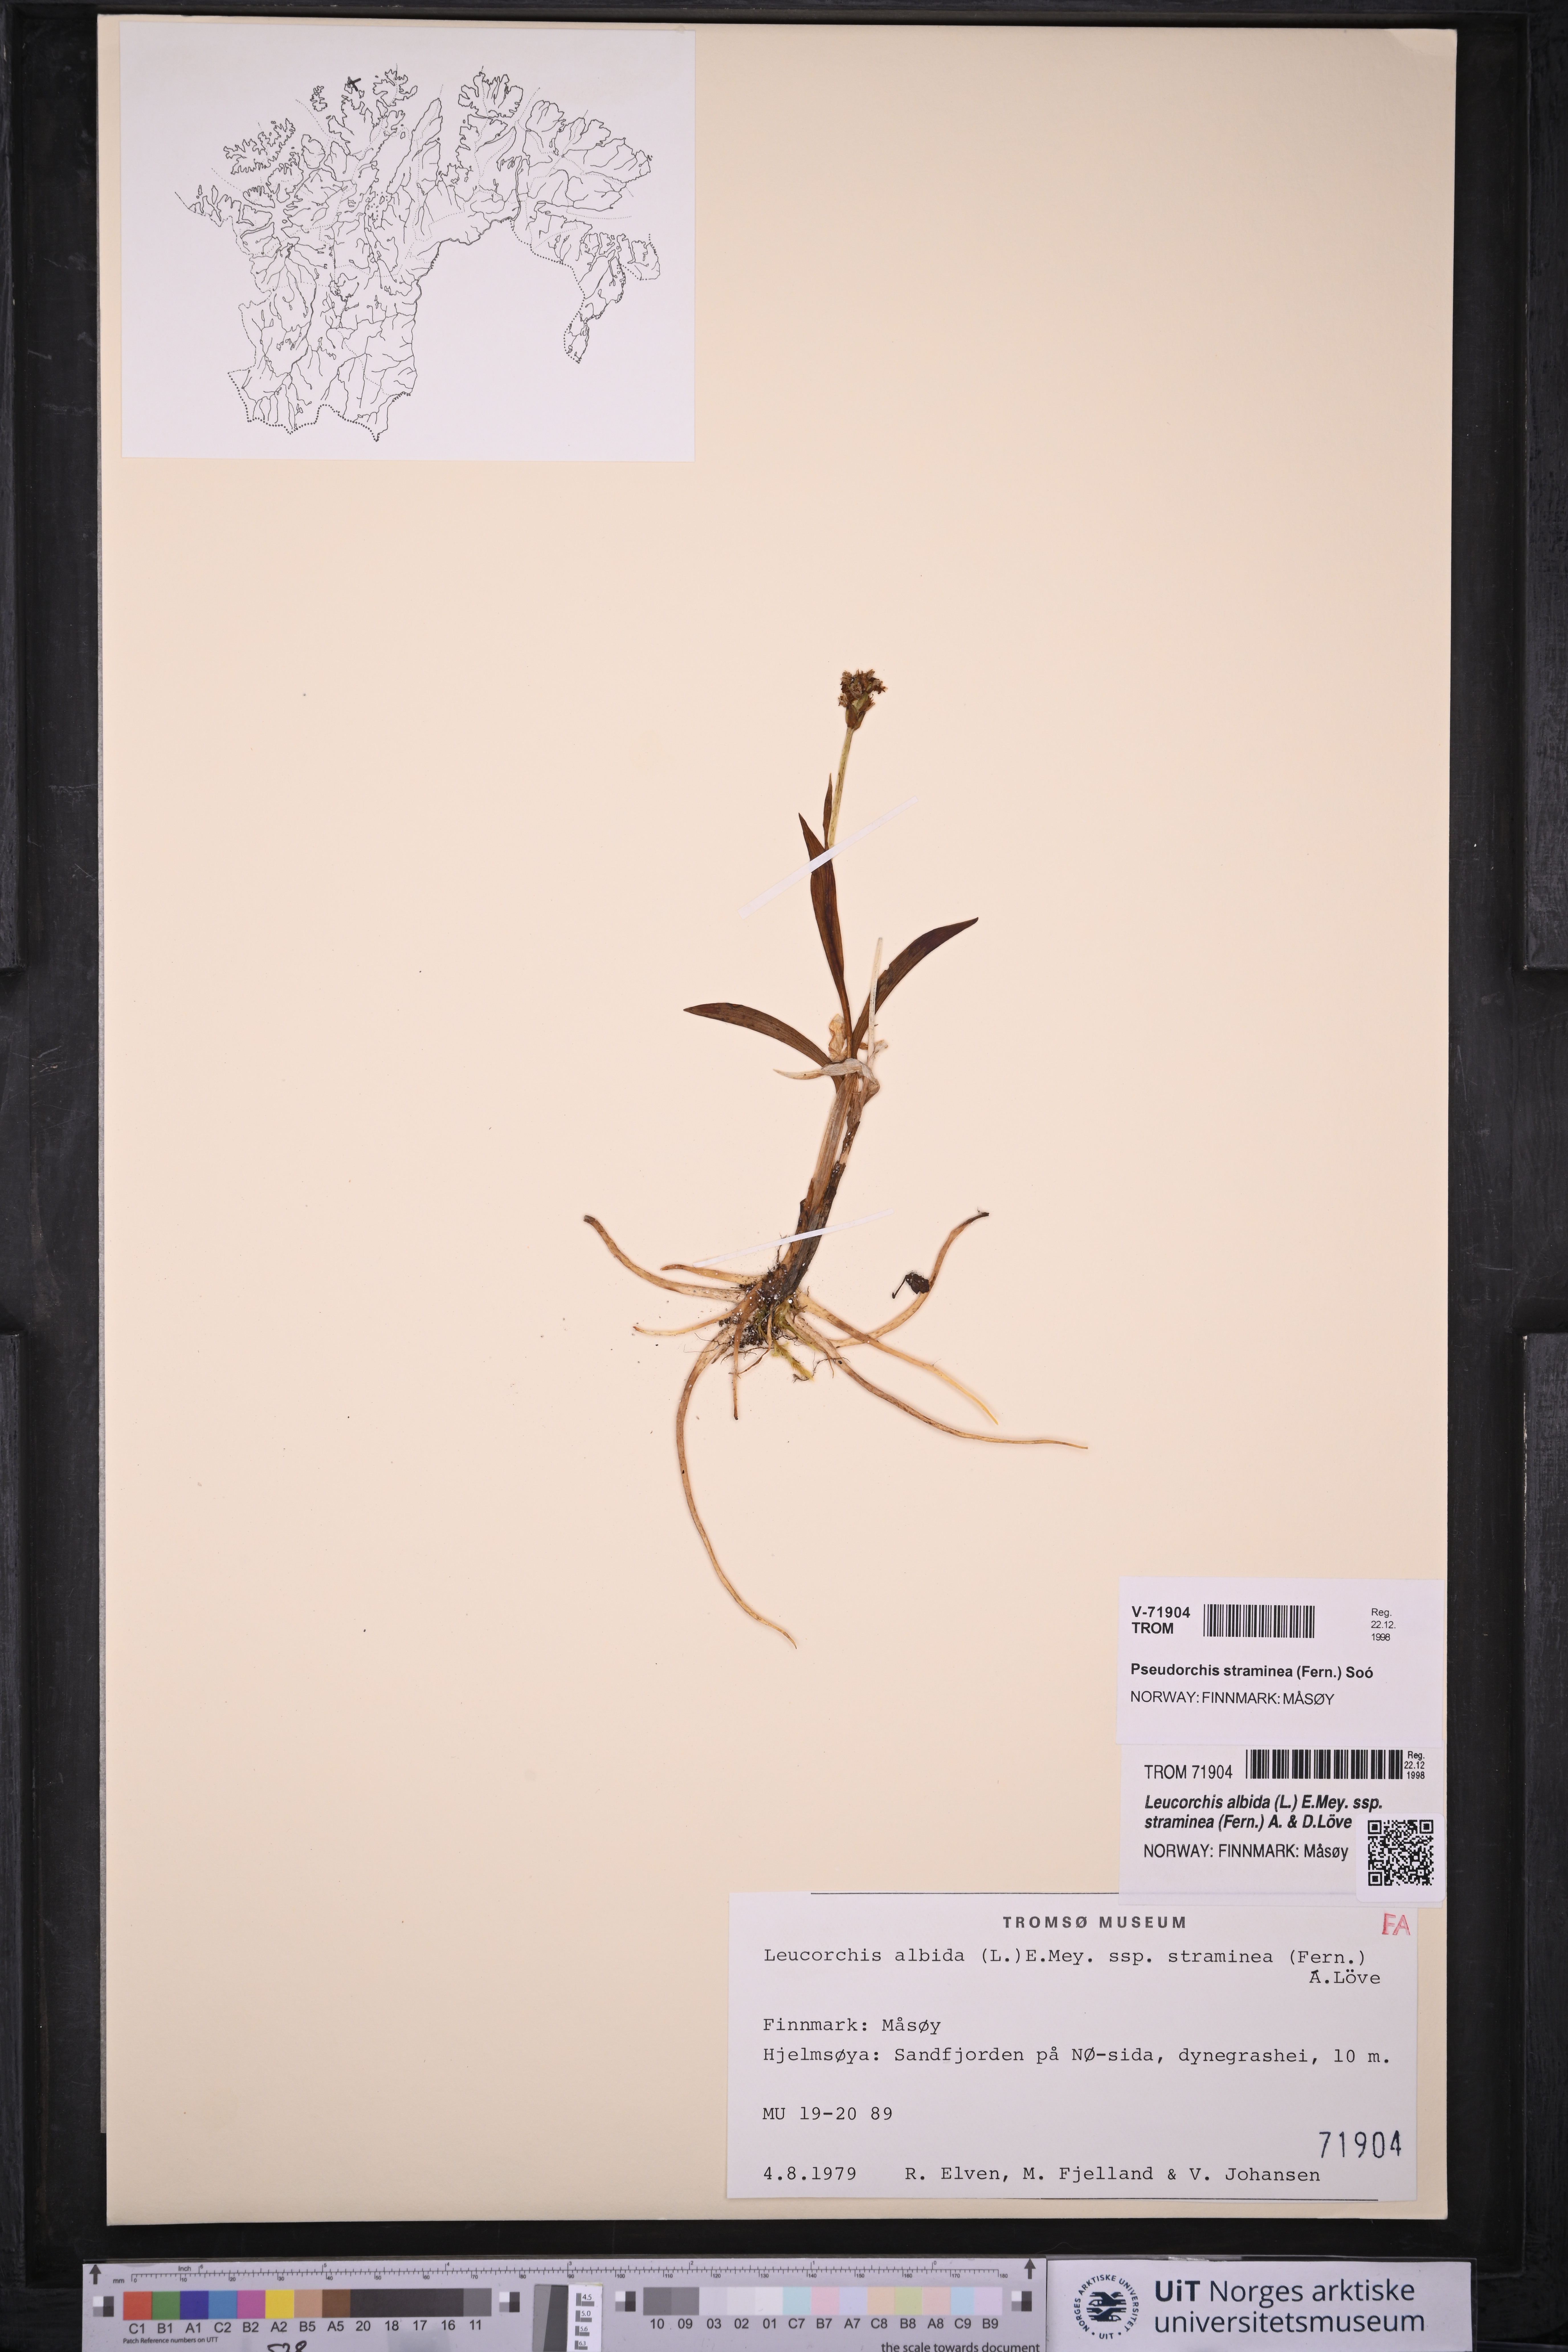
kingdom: Plantae
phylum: Tracheophyta
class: Liliopsida
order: Asparagales
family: Orchidaceae
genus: Pseudorchis
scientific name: Pseudorchis straminea
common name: Vanilla-scented bog orchid
